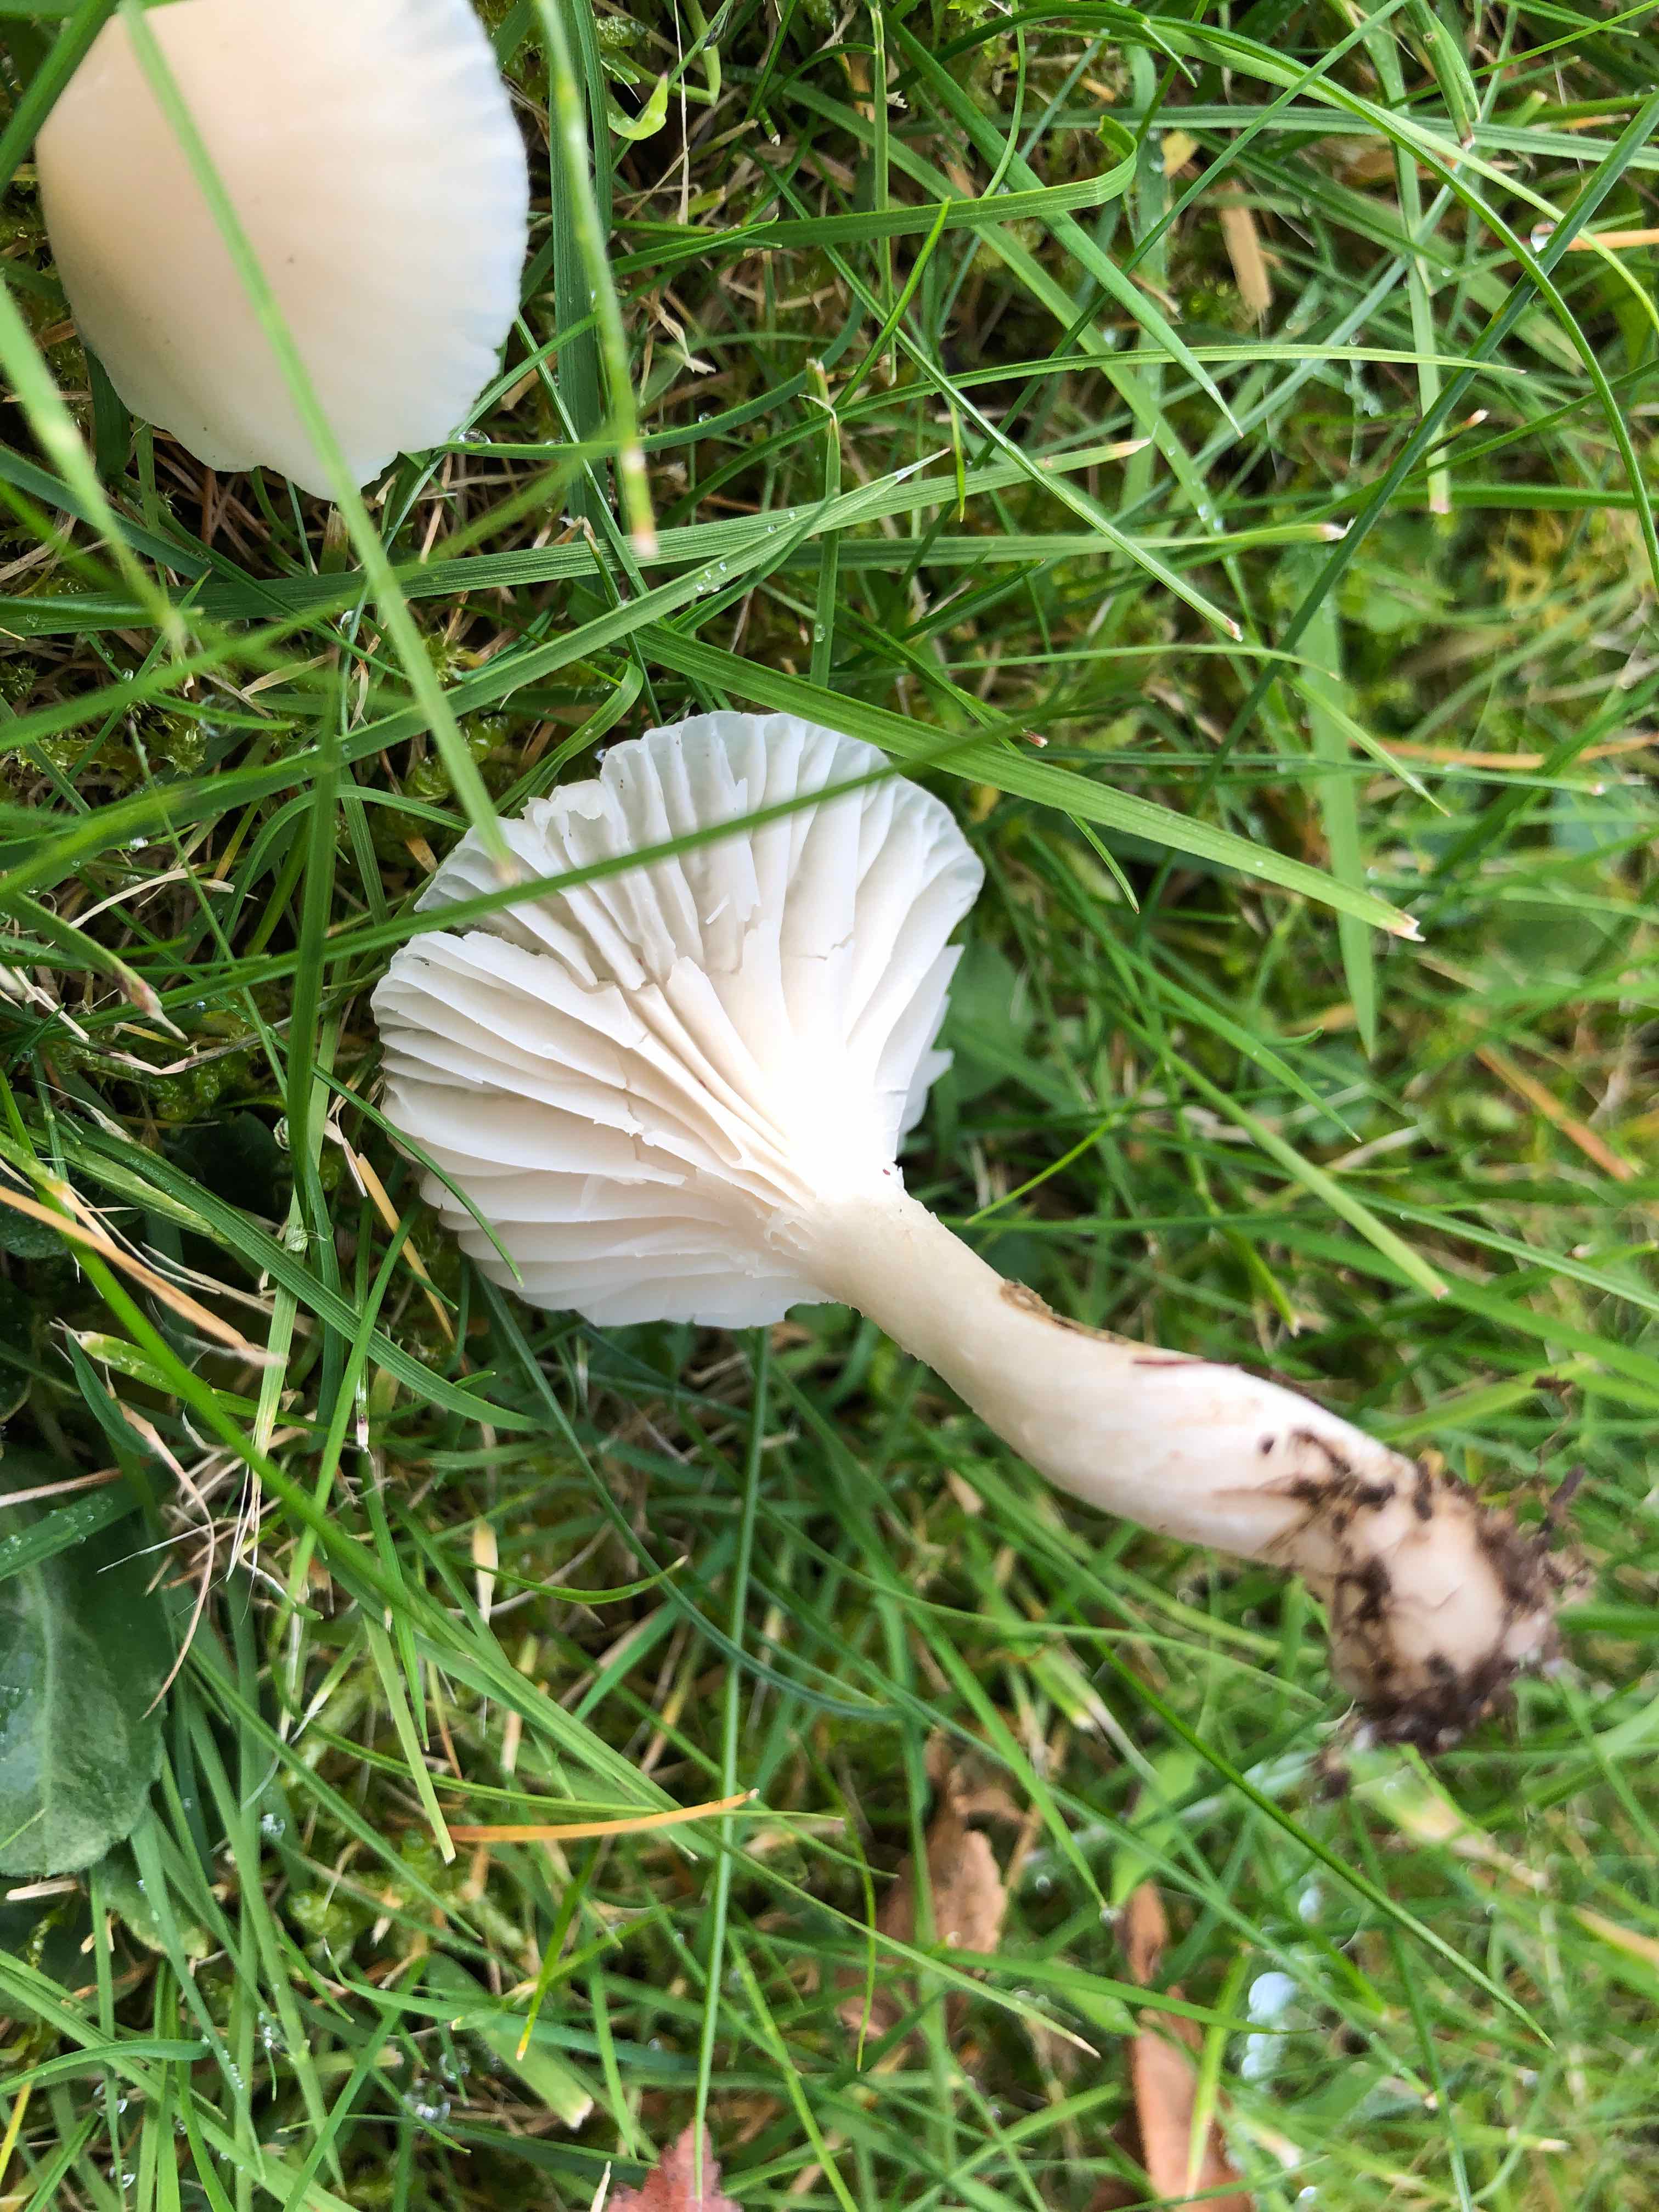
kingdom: Fungi
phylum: Basidiomycota
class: Agaricomycetes
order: Agaricales
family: Hygrophoraceae
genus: Cuphophyllus
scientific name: Cuphophyllus
